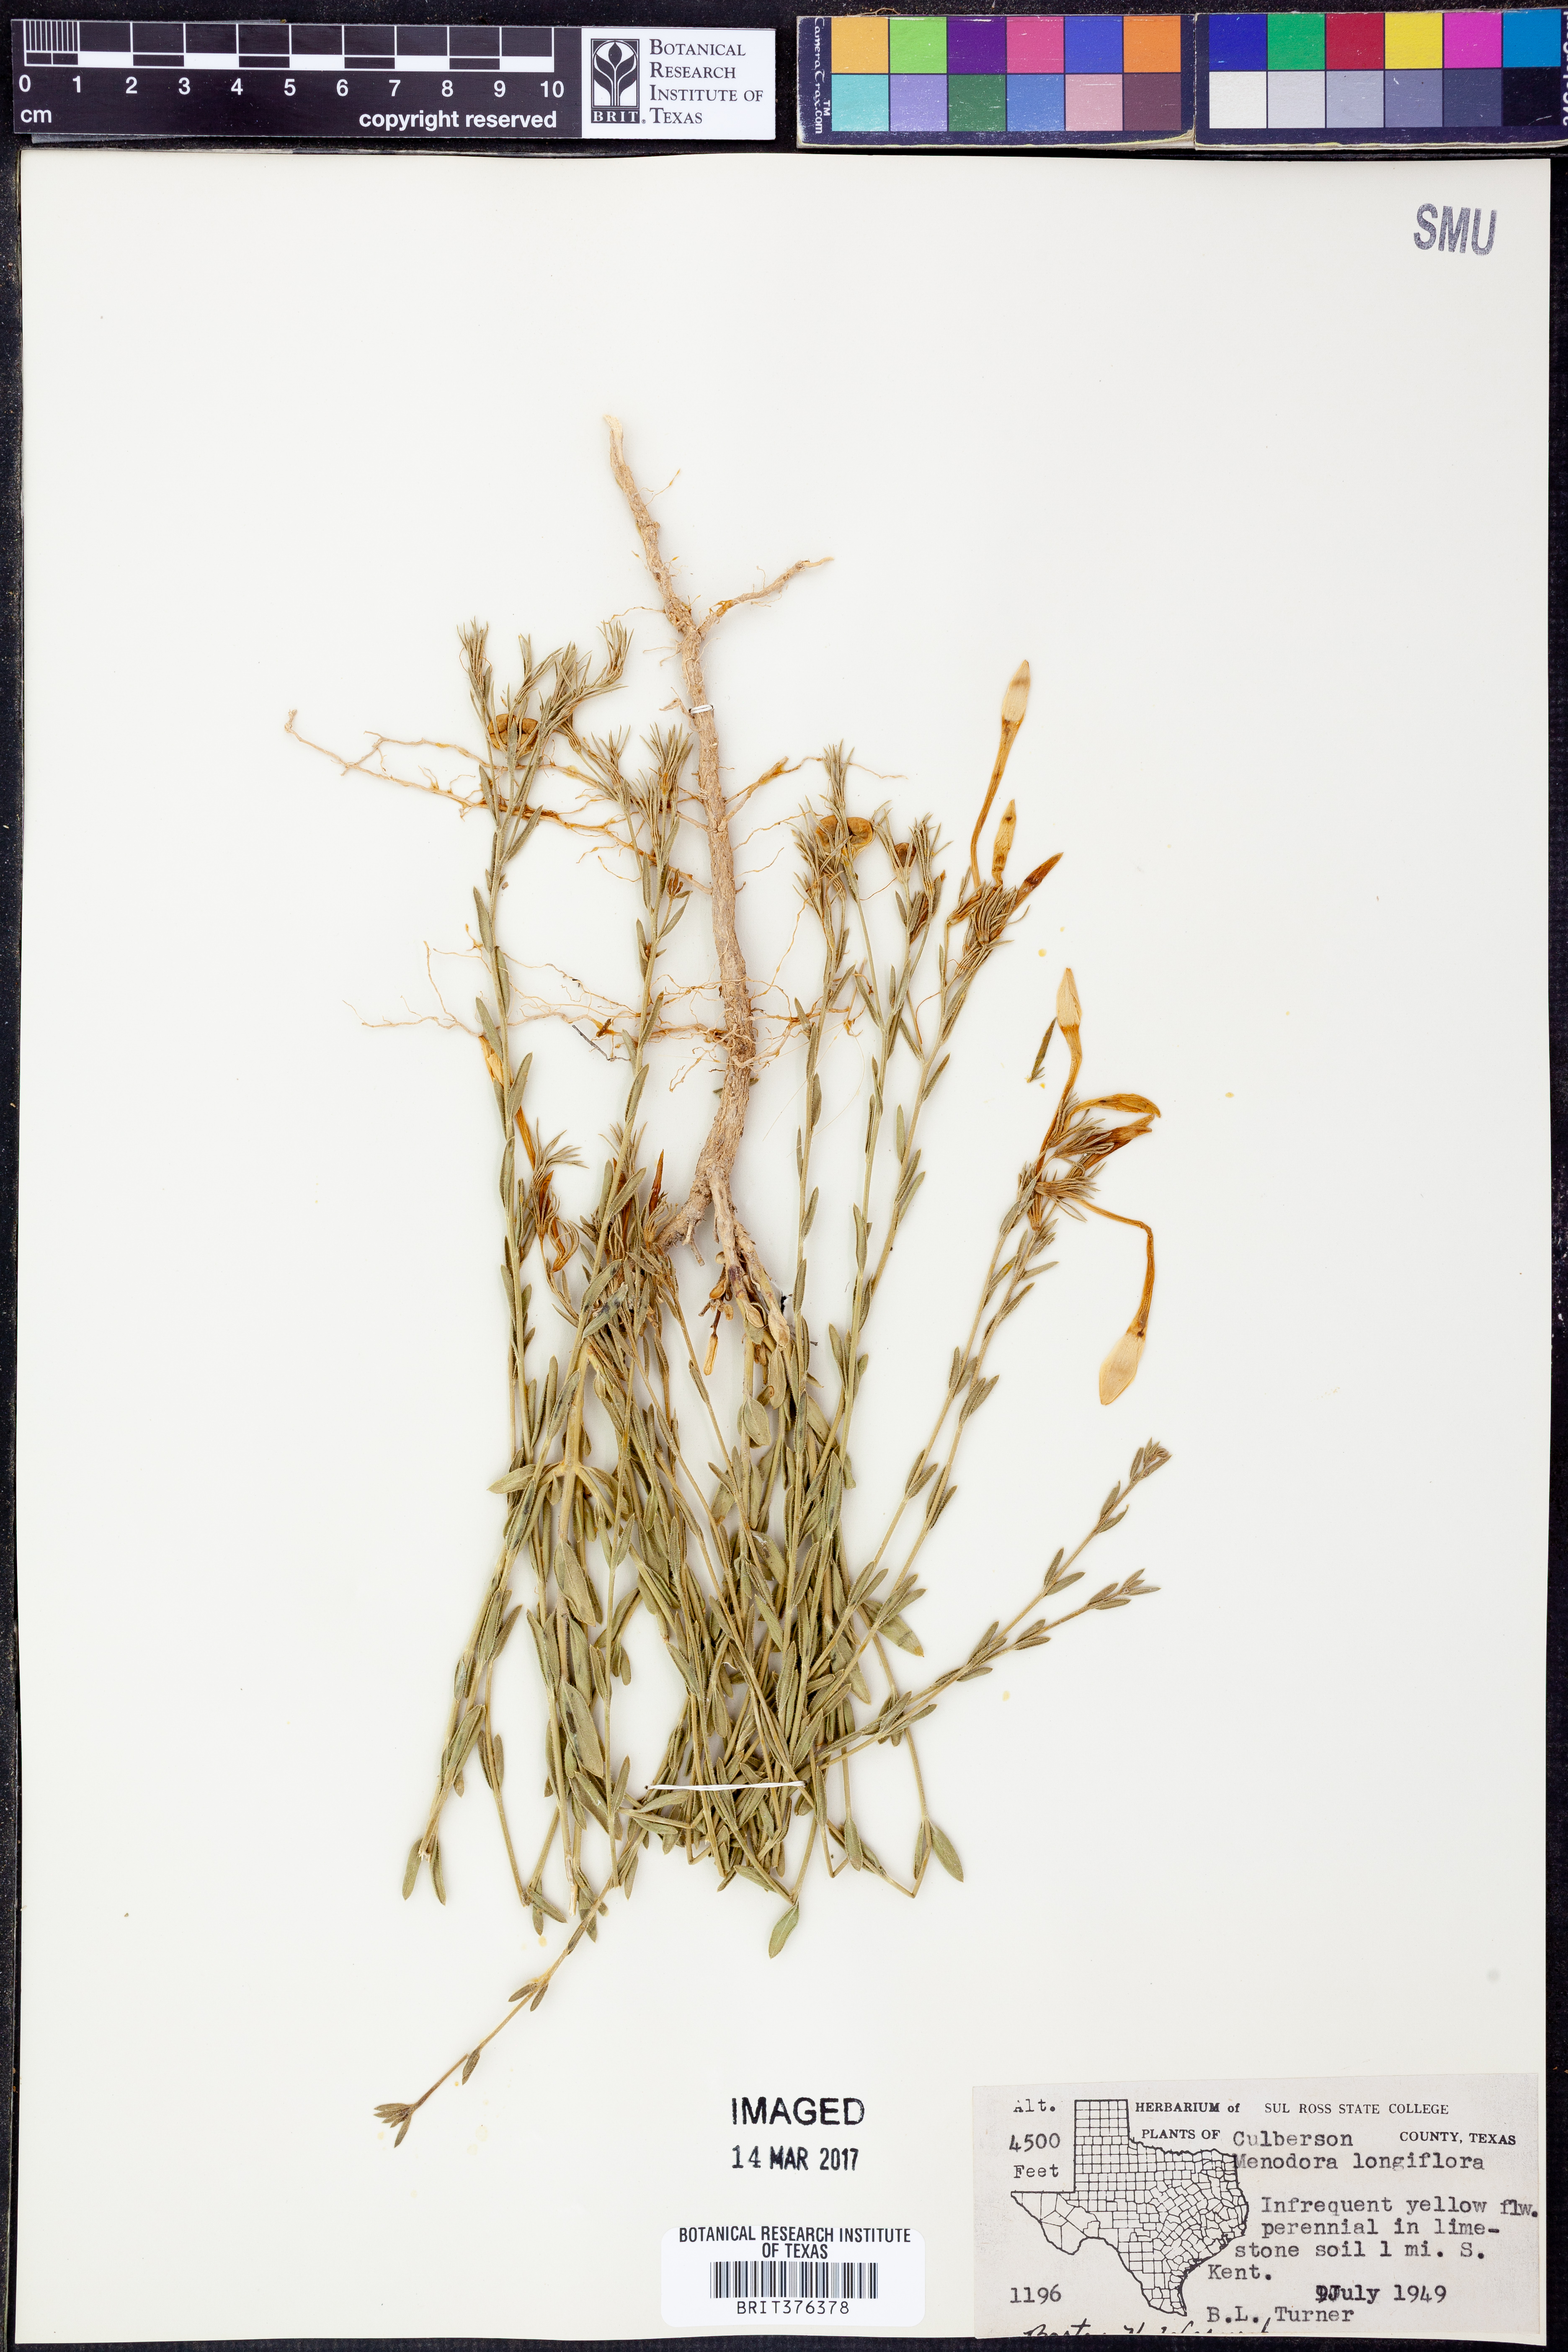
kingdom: Plantae
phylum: Tracheophyta
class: Magnoliopsida
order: Lamiales
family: Oleaceae
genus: Menodora
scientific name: Menodora longiflora
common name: Showy menodora
